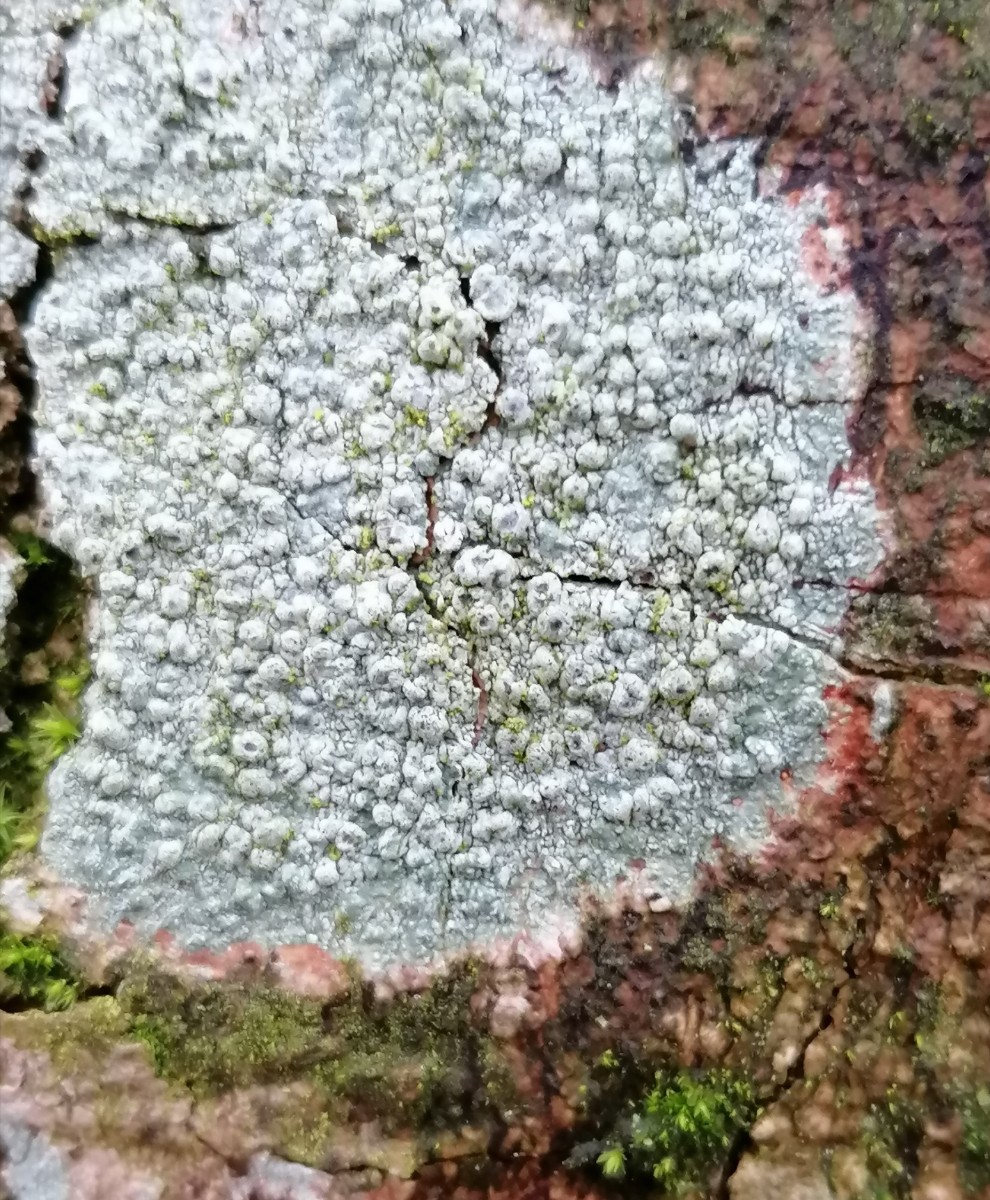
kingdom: Fungi
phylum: Ascomycota
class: Lecanoromycetes
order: Pertusariales
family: Pertusariaceae
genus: Pertusaria
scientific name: Pertusaria hymenea
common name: åben prikvortelav
